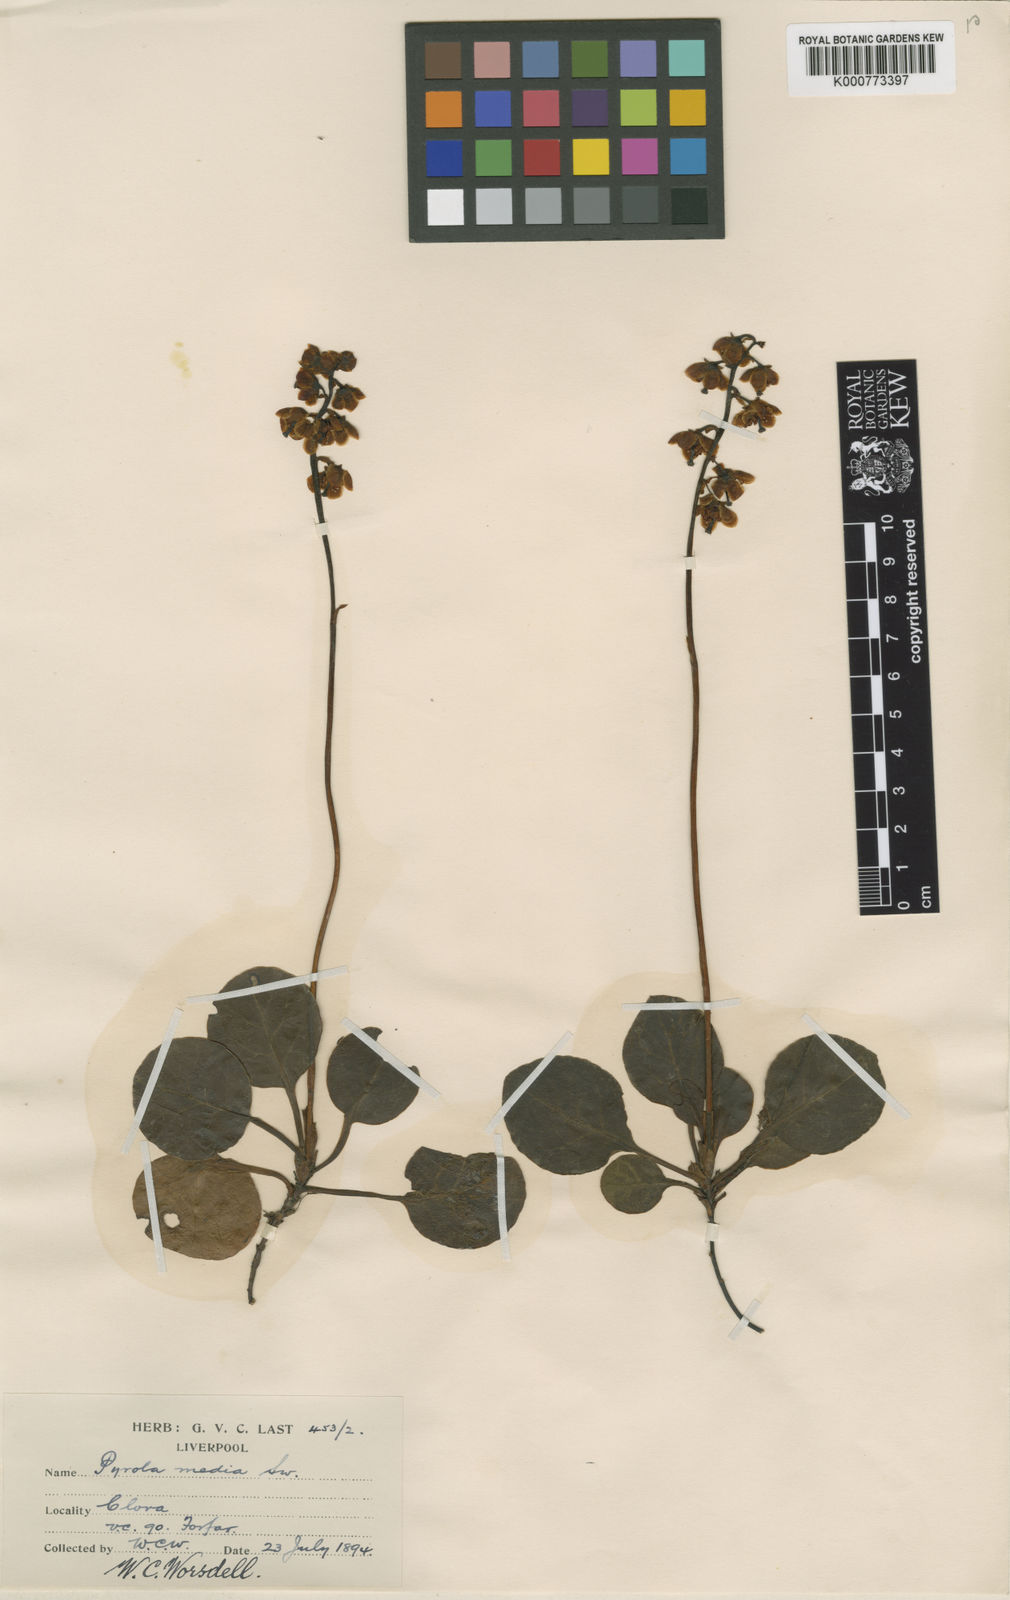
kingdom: Plantae
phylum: Tracheophyta
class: Magnoliopsida
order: Ericales
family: Ericaceae
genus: Pyrola
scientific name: Pyrola media
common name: Intermediate wintergreen
